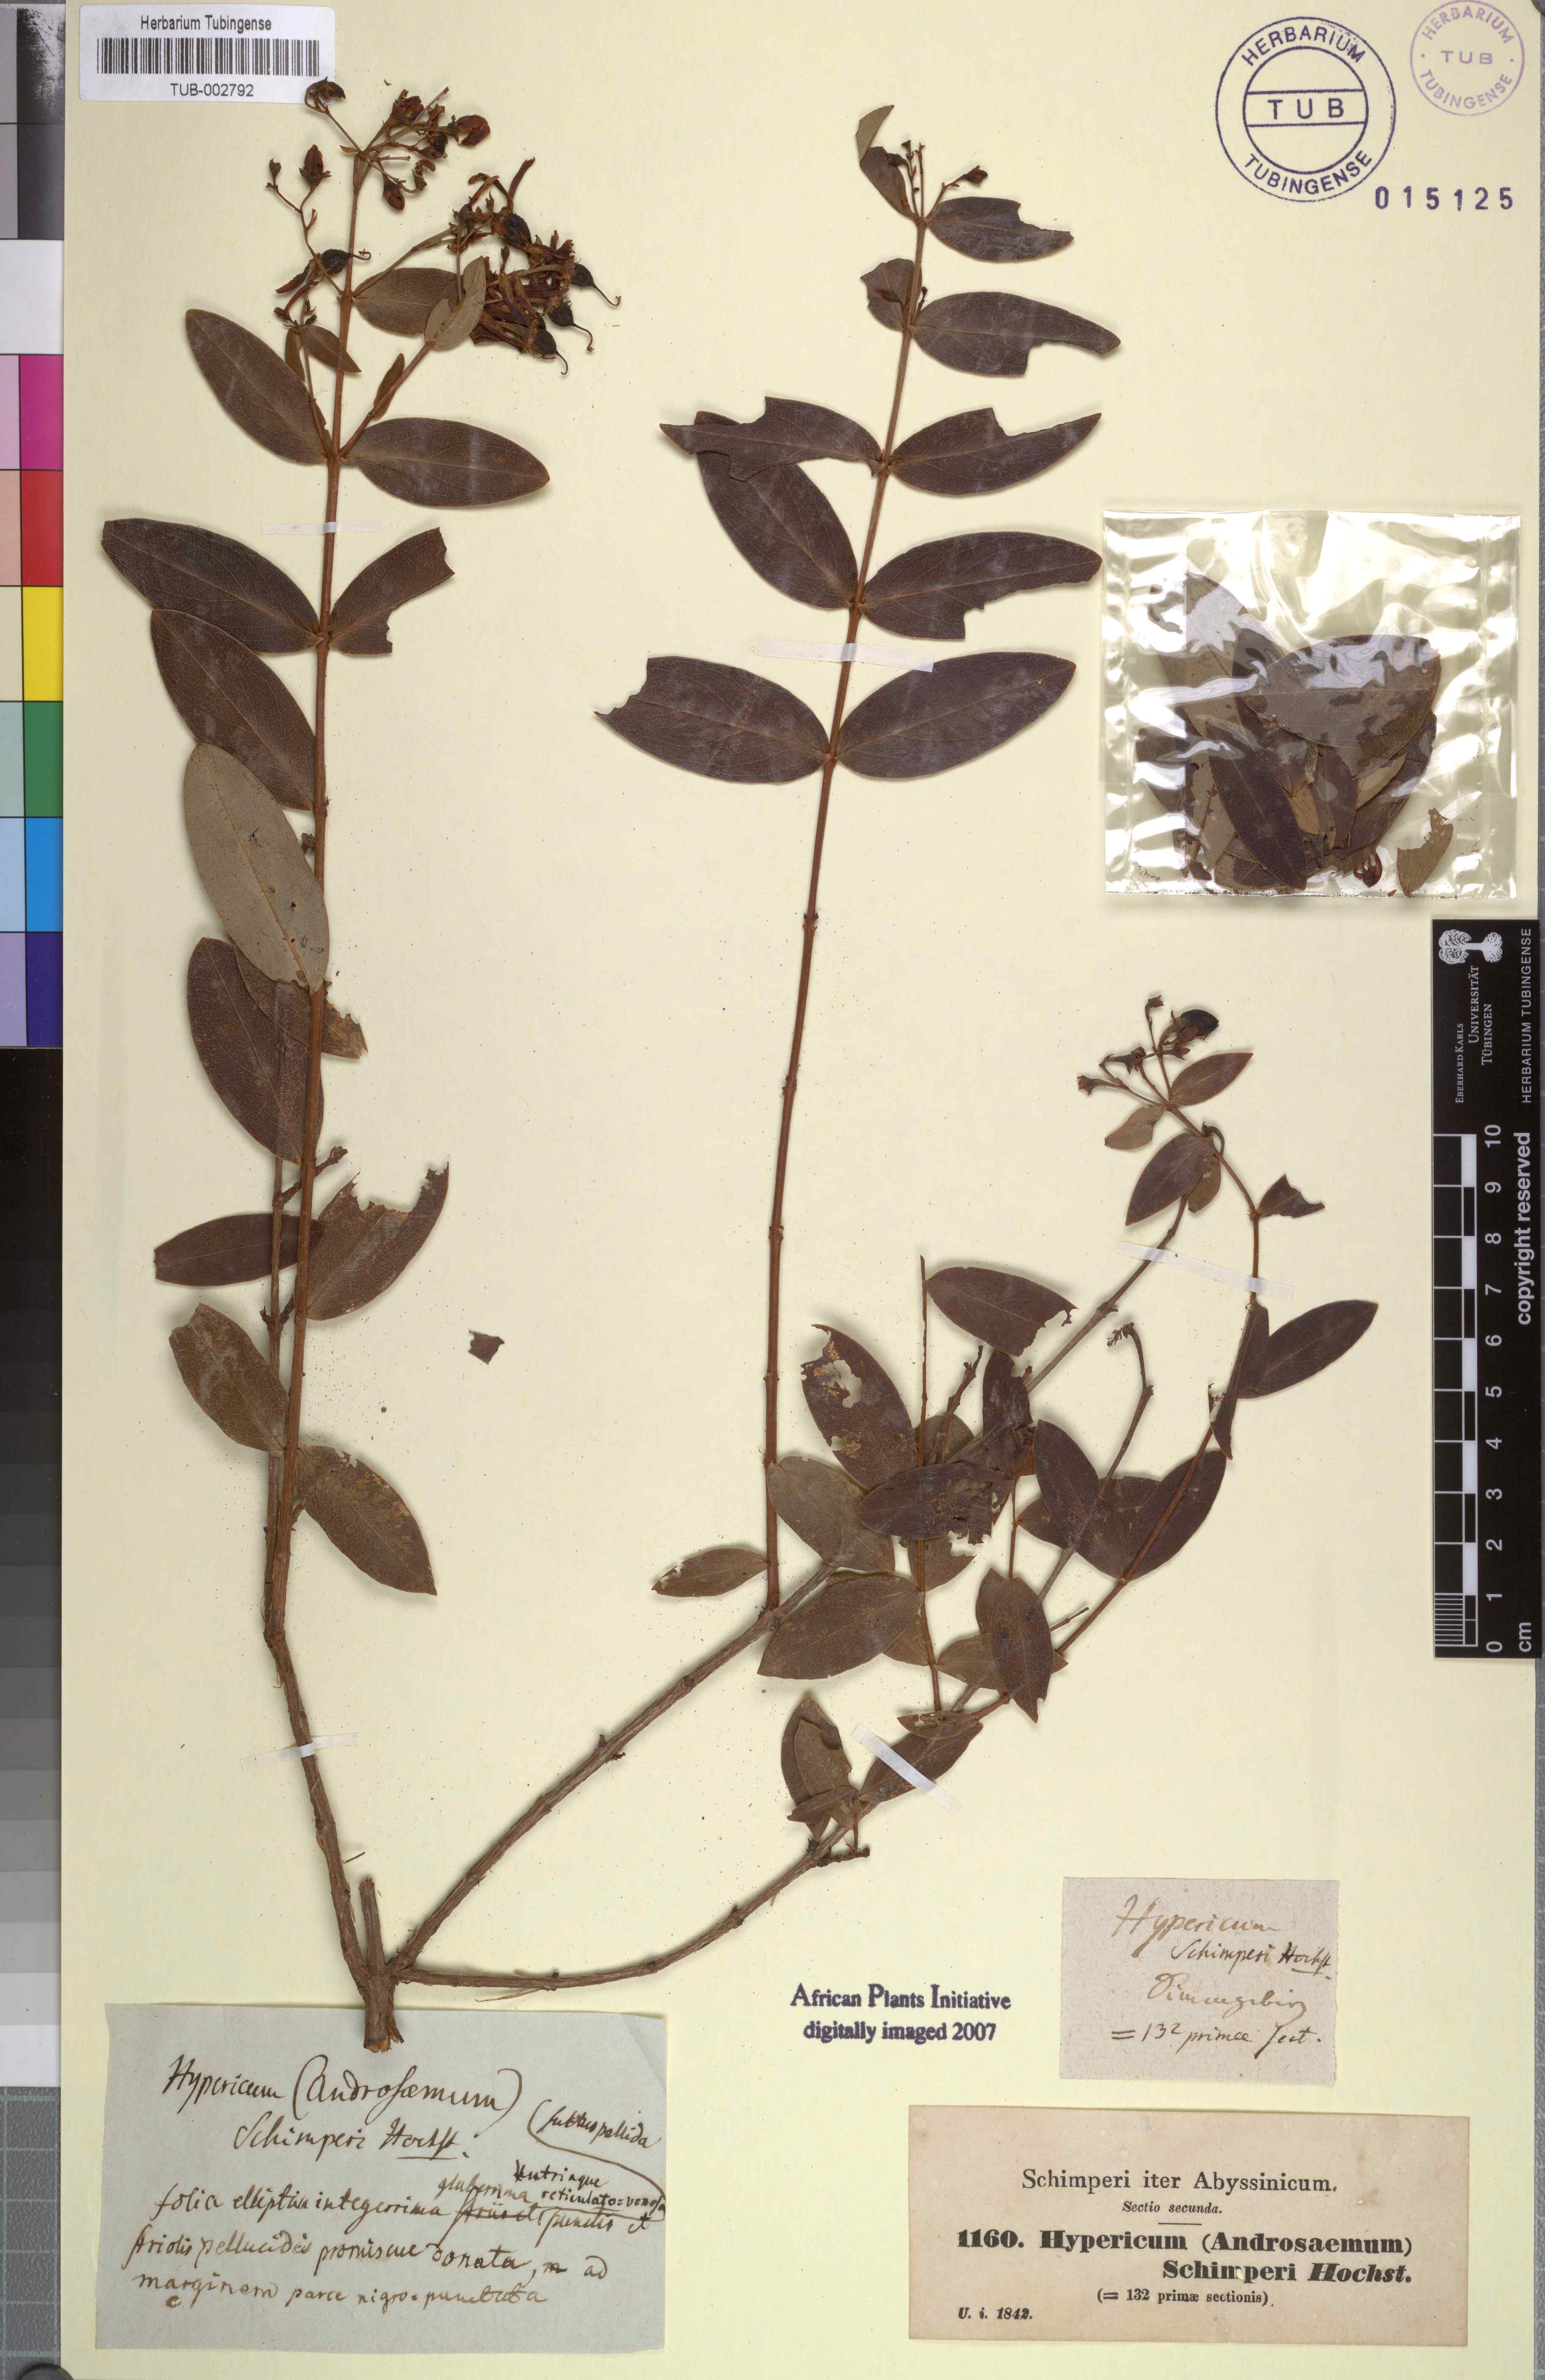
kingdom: Plantae
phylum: Tracheophyta
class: Magnoliopsida
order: Malpighiales
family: Hypericaceae
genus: Hypericum
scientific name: Hypericum roeperianum
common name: Large-leaved curry-bush
